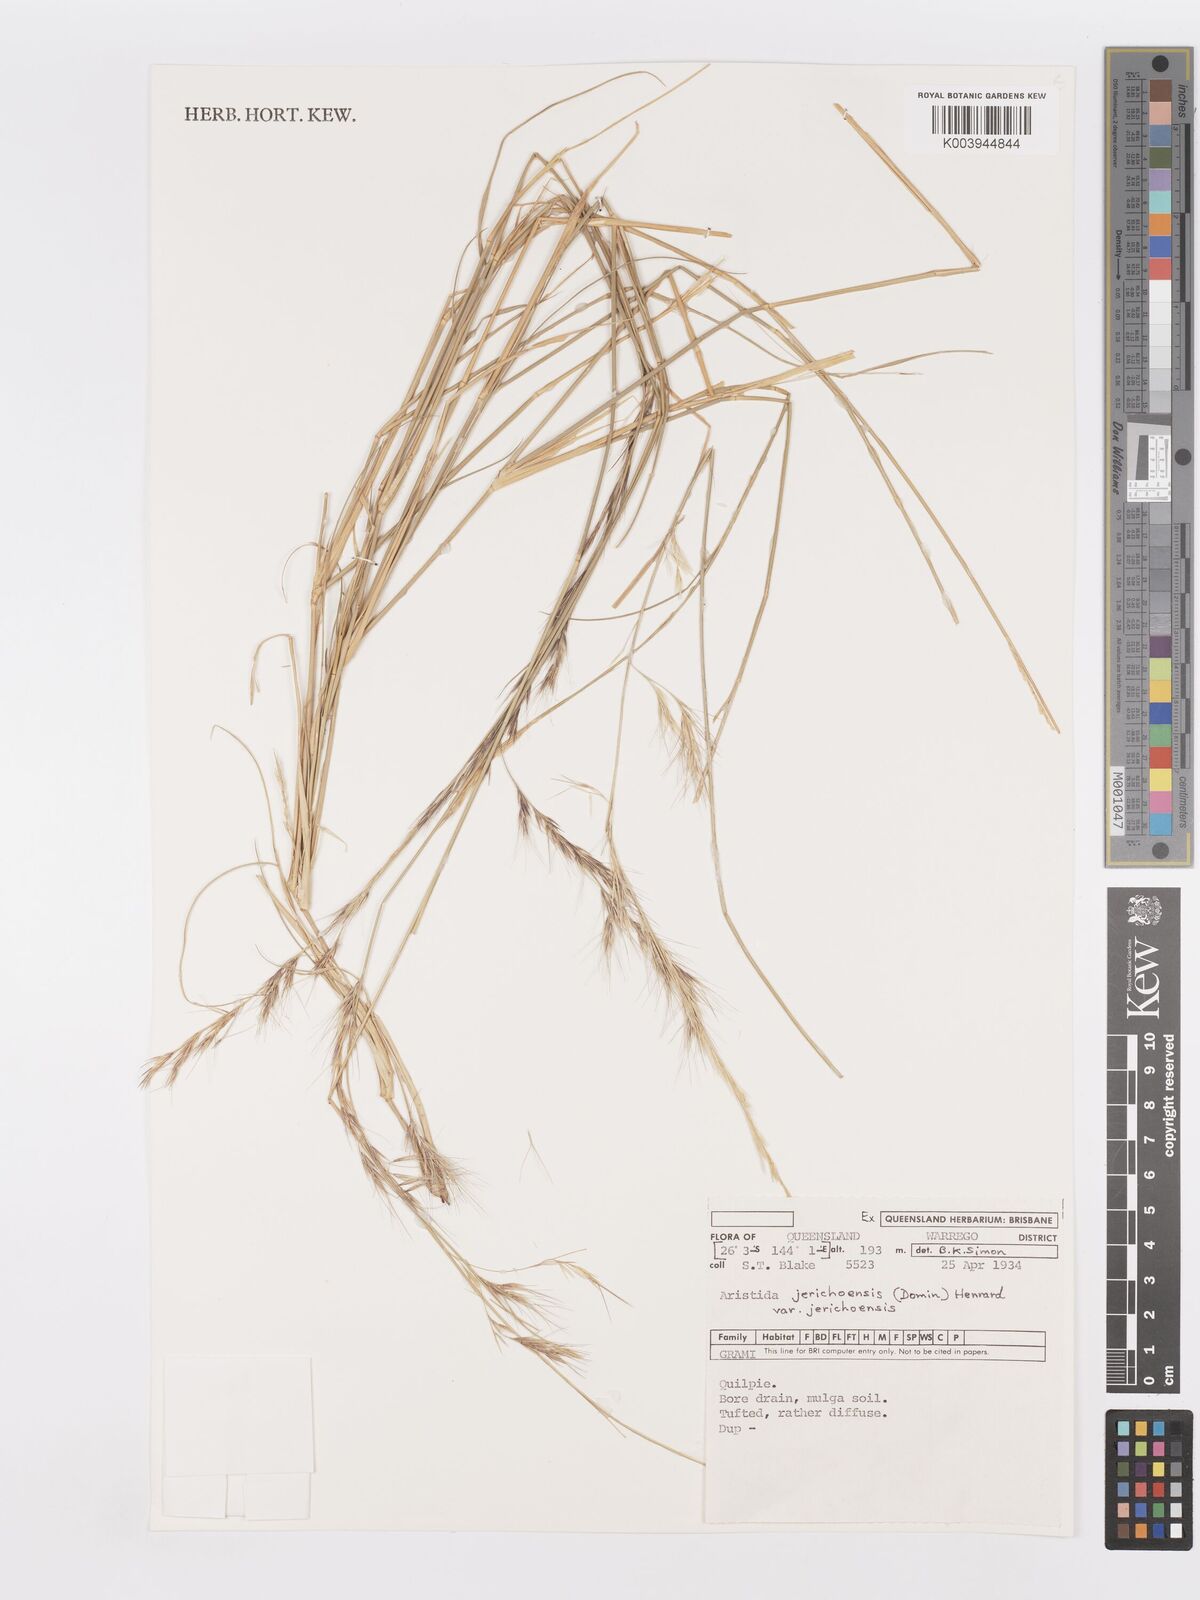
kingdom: Plantae
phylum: Tracheophyta
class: Liliopsida
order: Poales
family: Poaceae
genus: Aristida
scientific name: Aristida jerichoensis
